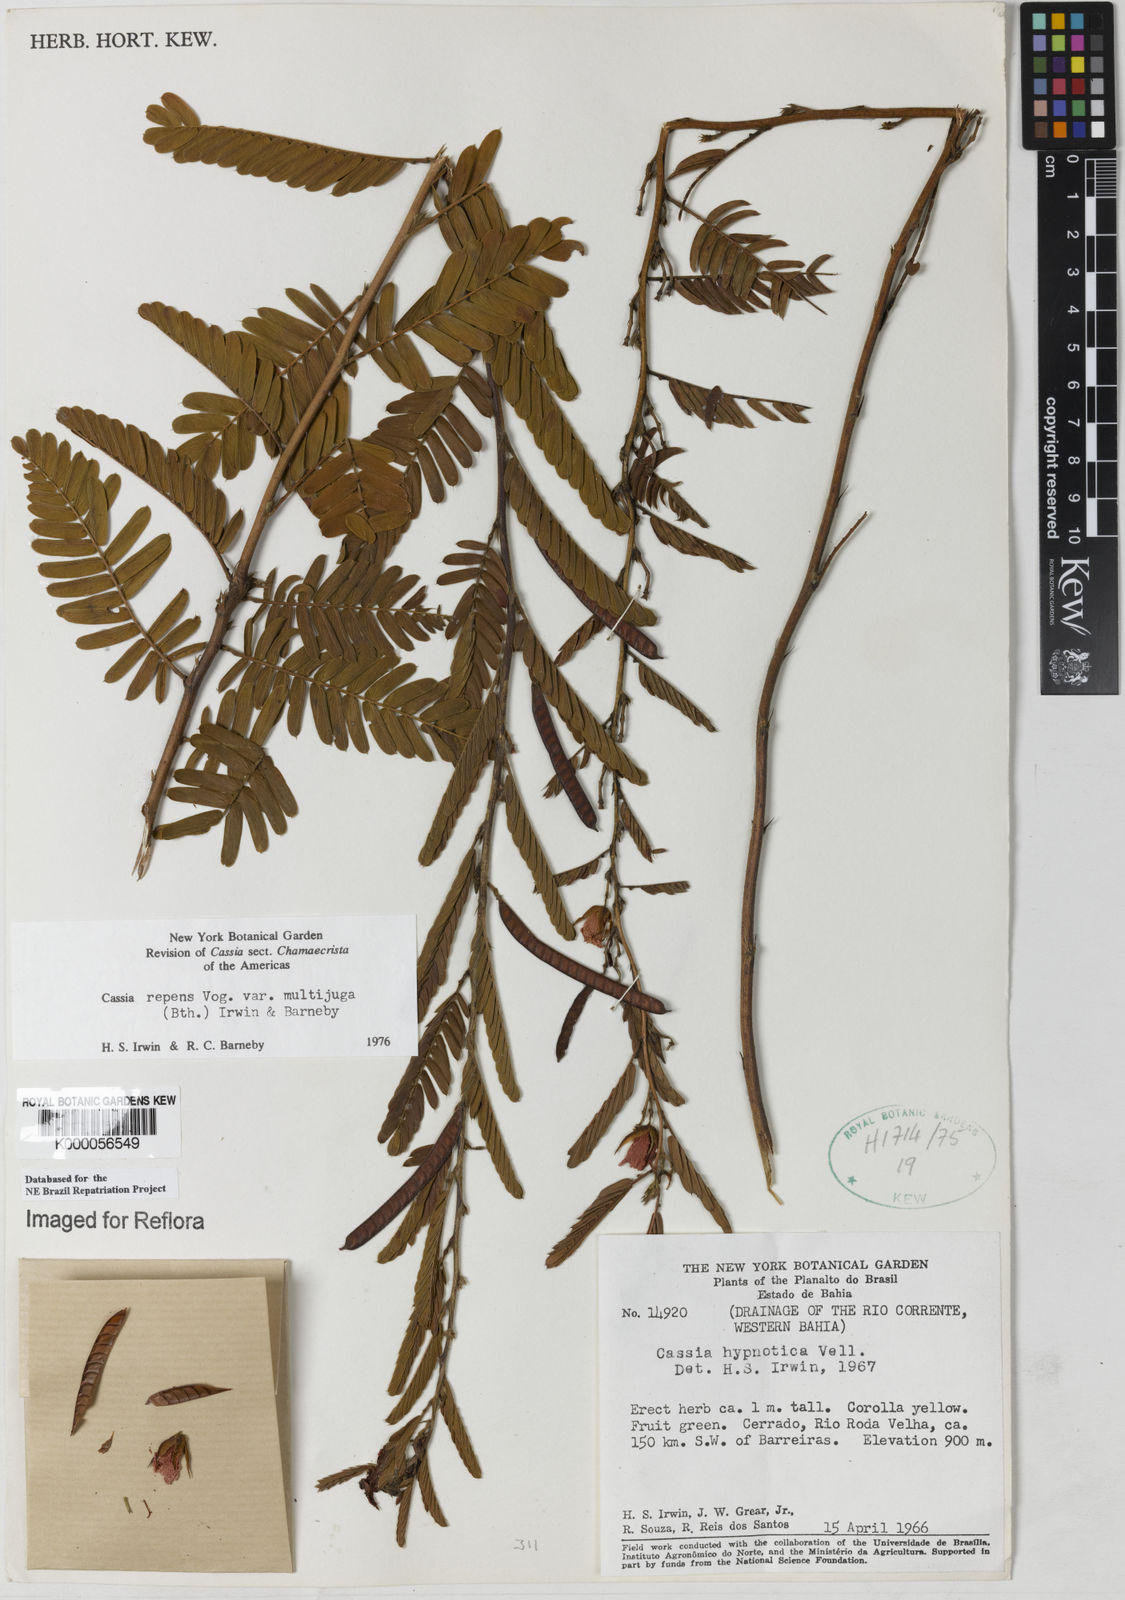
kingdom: Plantae
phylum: Tracheophyta
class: Magnoliopsida
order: Fabales
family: Fabaceae
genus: Chamaecrista
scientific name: Chamaecrista repens
